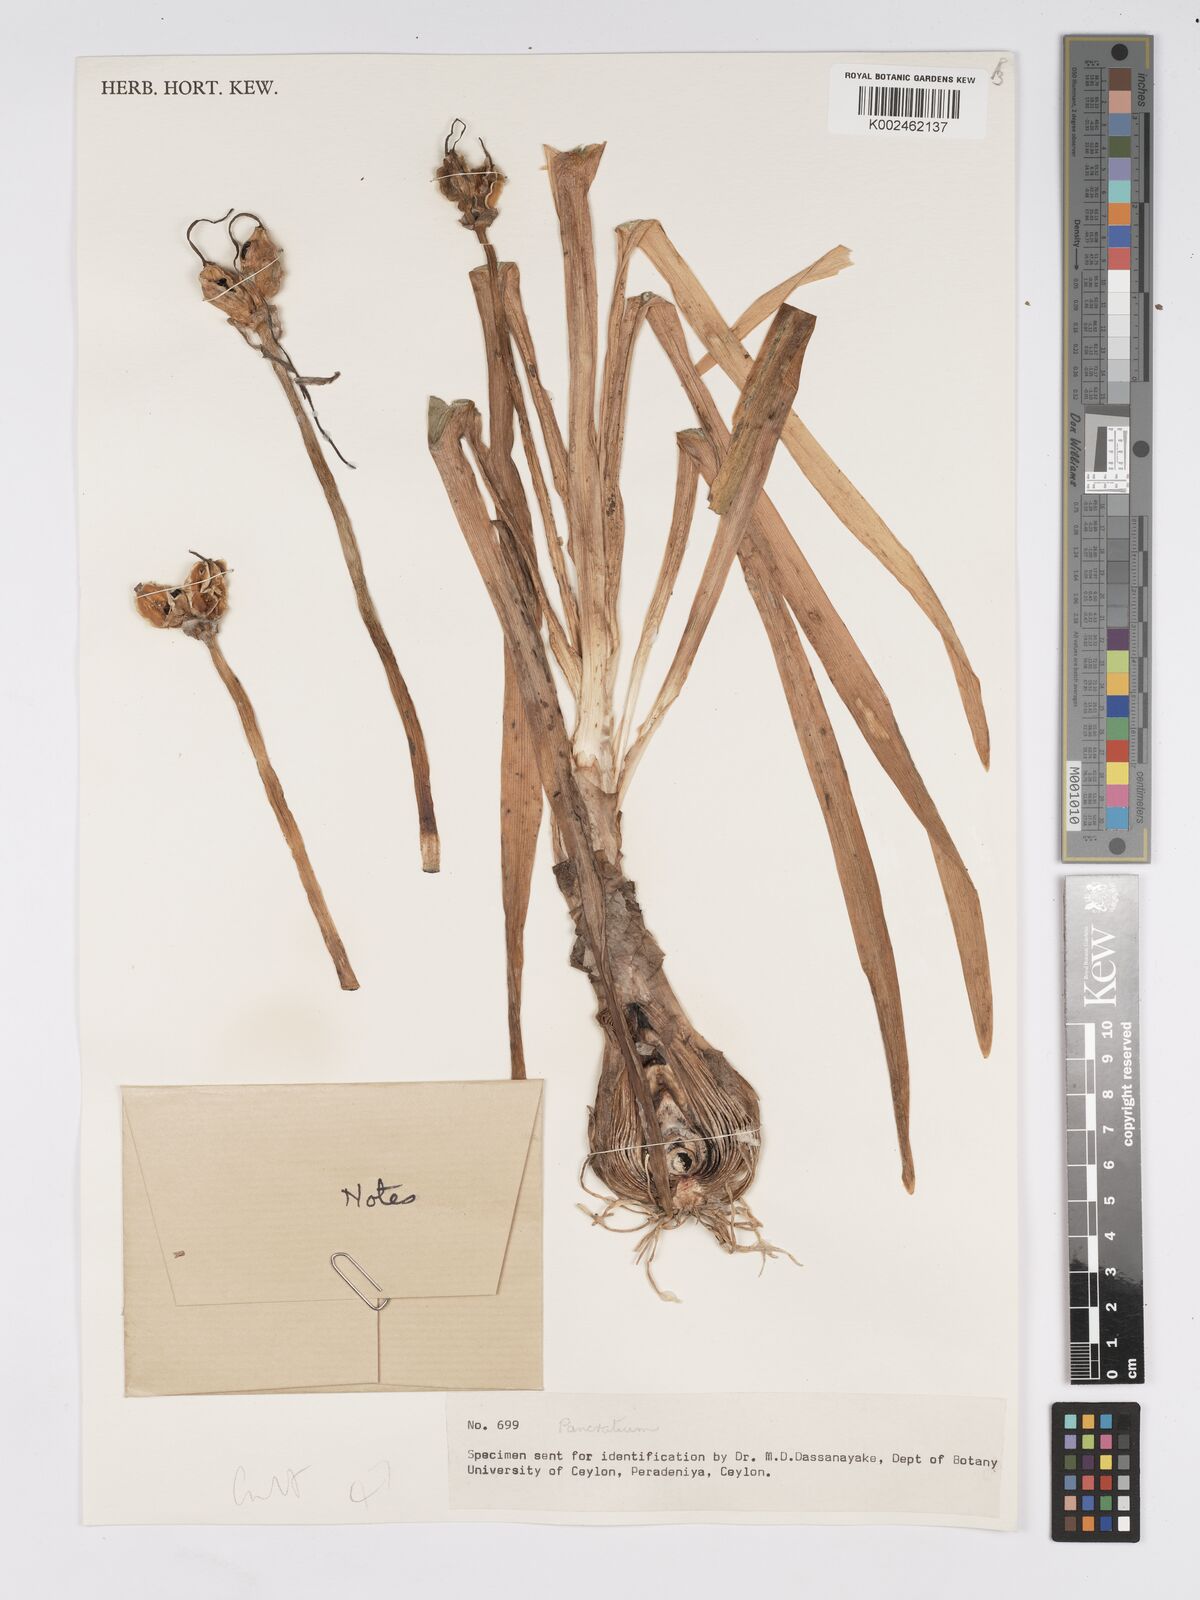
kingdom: Plantae
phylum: Tracheophyta
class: Liliopsida
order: Asparagales
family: Amaryllidaceae
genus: Pancratium
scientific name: Pancratium biflorum
